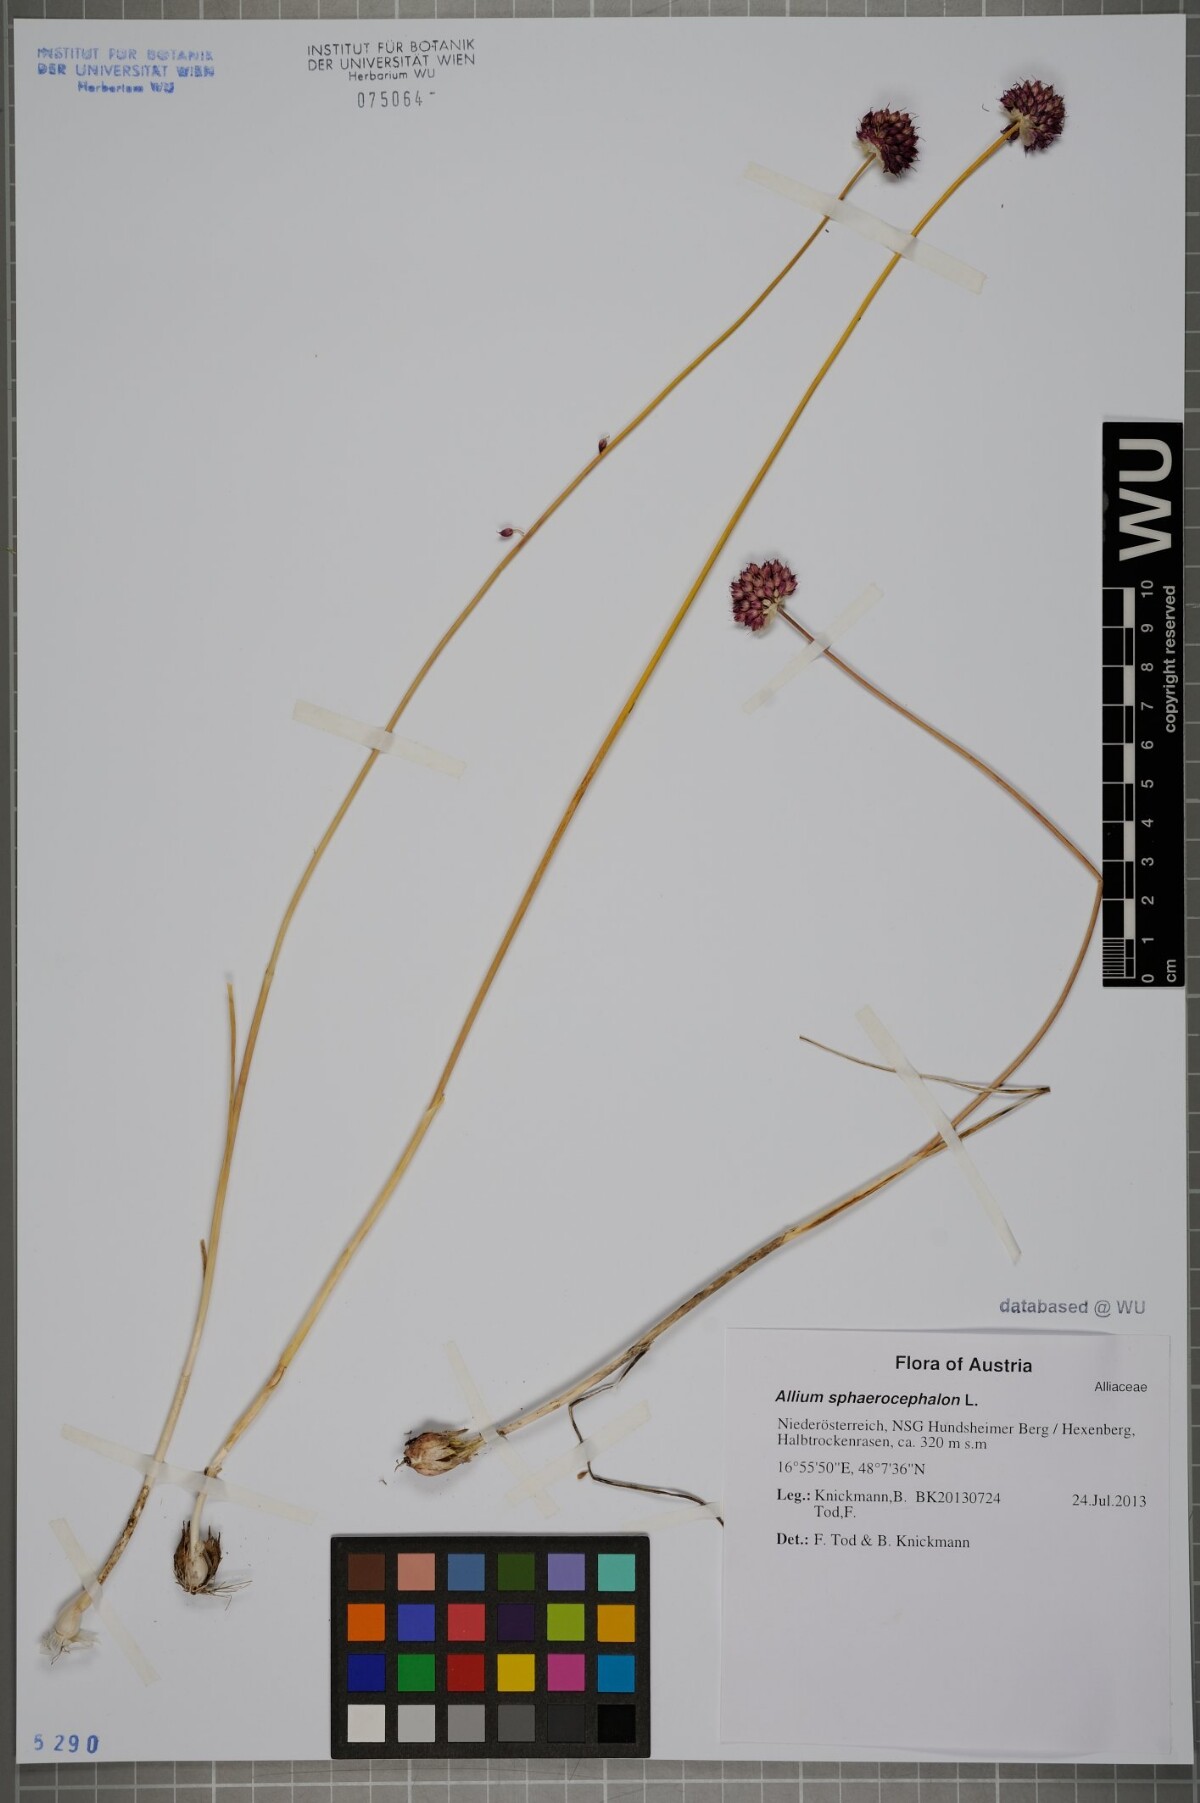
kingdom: Plantae
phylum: Tracheophyta
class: Liliopsida
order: Asparagales
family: Amaryllidaceae
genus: Allium
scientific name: Allium sphaerocephalon
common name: Round-headed leek
